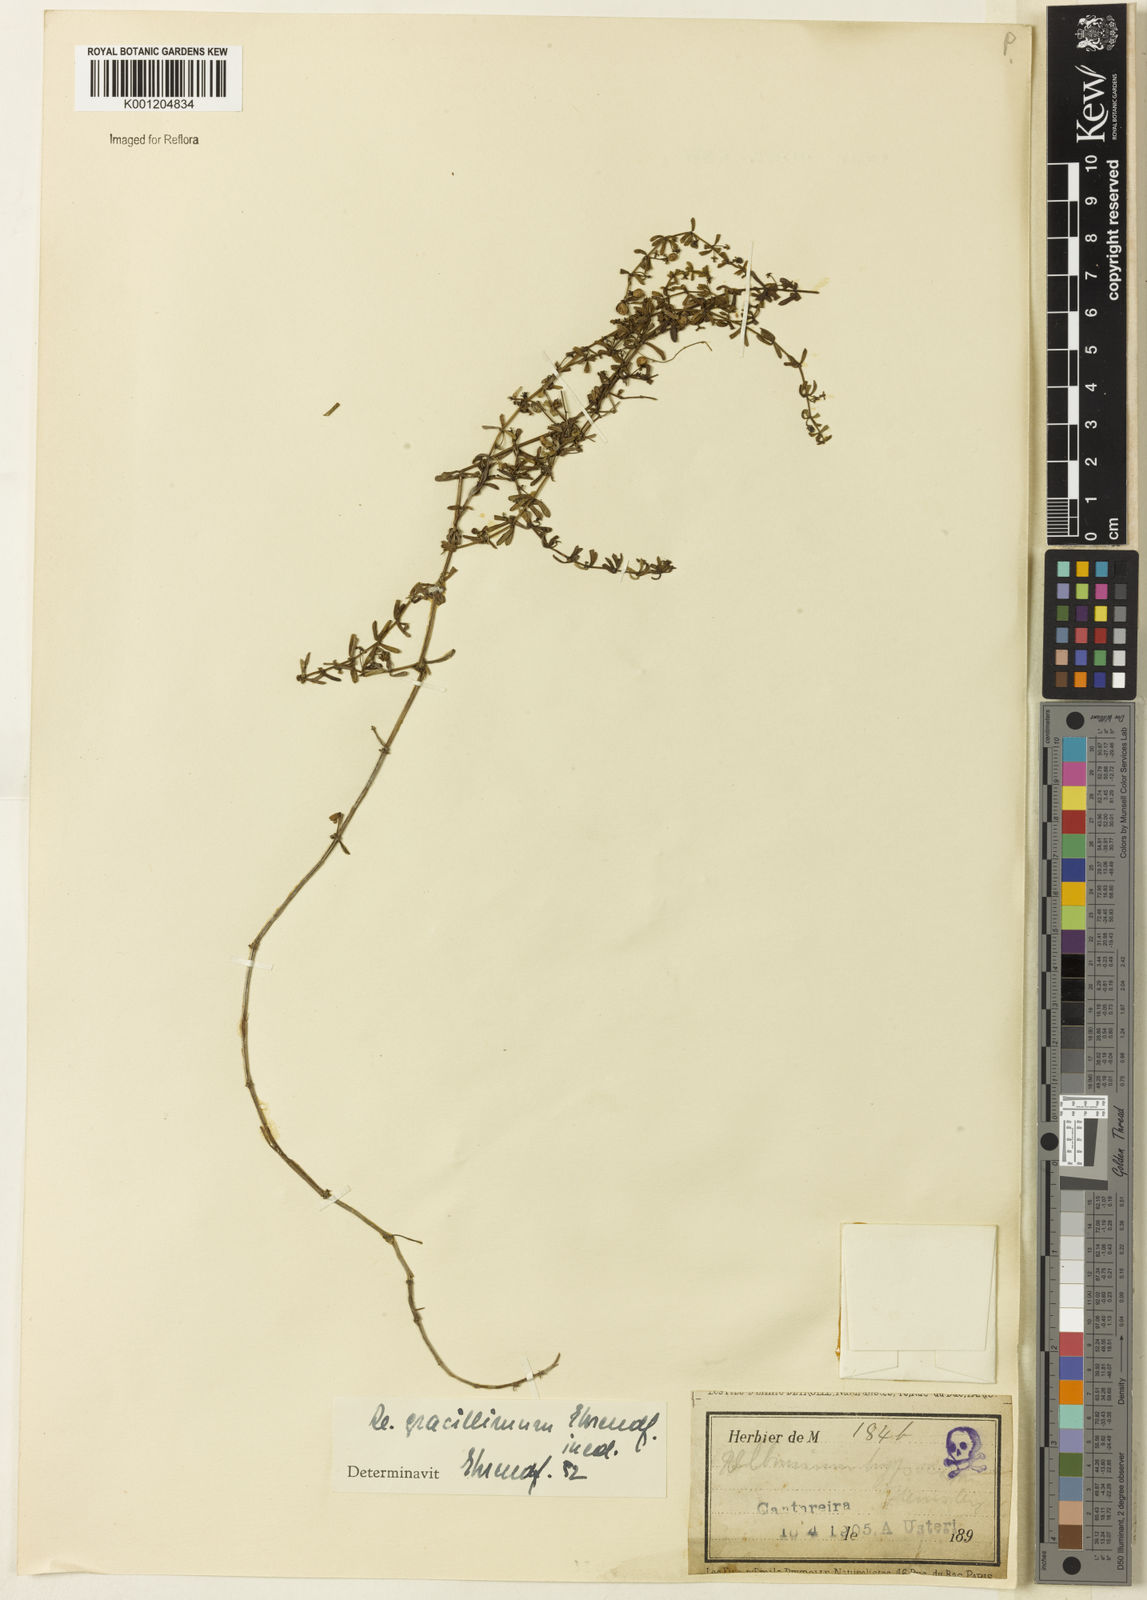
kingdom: Plantae
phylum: Tracheophyta
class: Magnoliopsida
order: Gentianales
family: Rubiaceae
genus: Galium
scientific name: Galium hypocarpium
